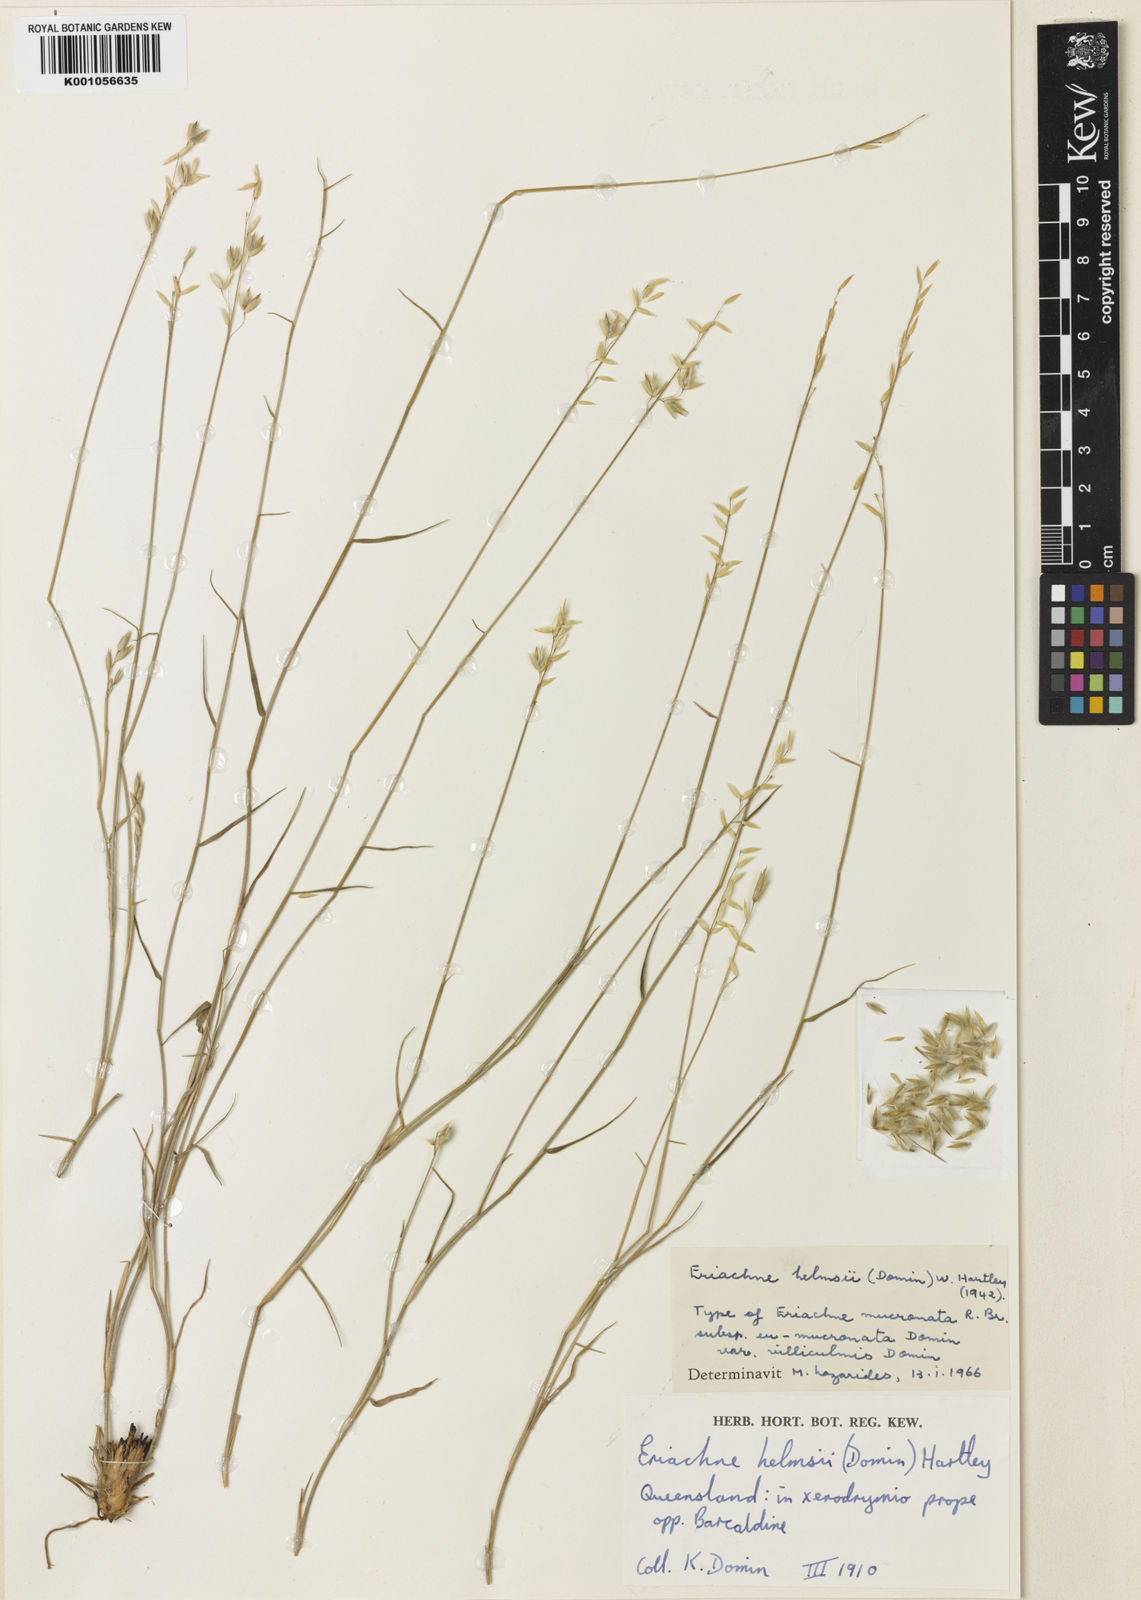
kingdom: Plantae
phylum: Tracheophyta
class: Liliopsida
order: Poales
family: Poaceae
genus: Eriachne
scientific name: Eriachne helmsii
